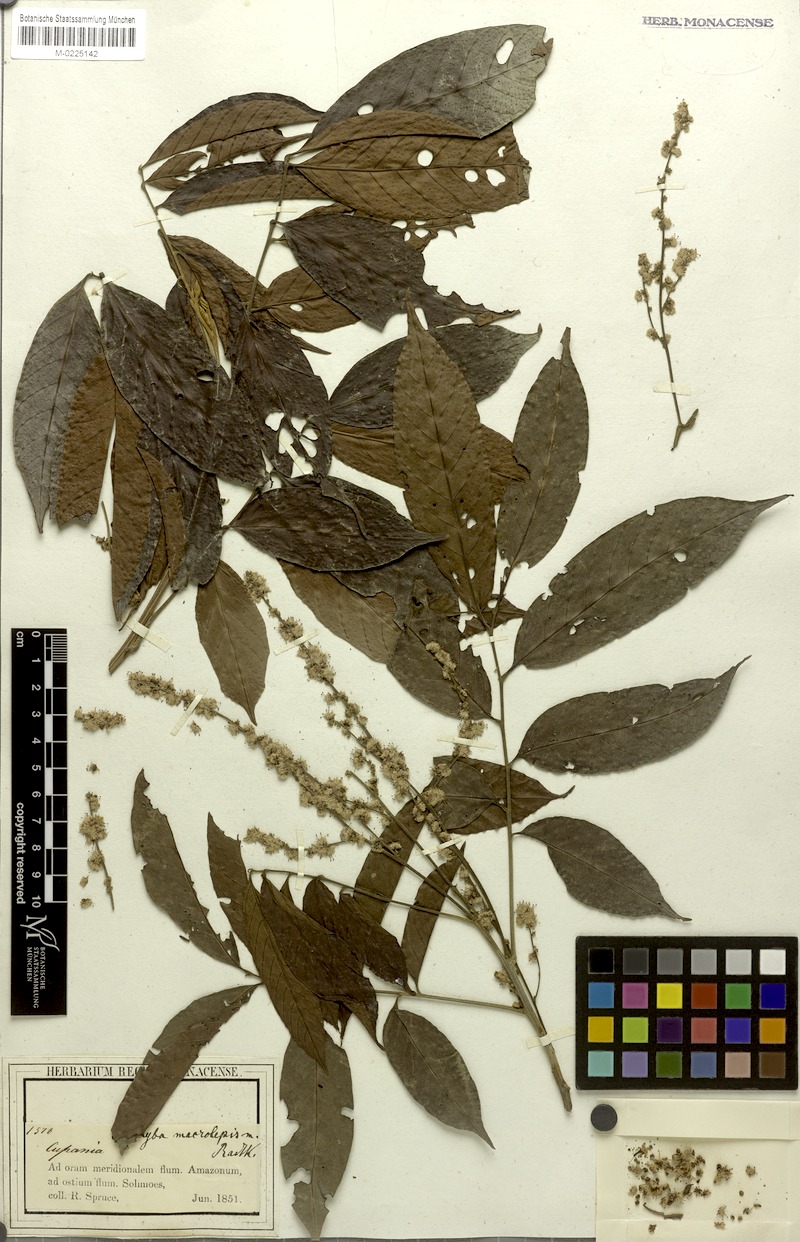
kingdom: Plantae
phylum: Tracheophyta
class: Magnoliopsida
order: Sapindales
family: Sapindaceae
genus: Cupania
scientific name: Cupania macrostylis
